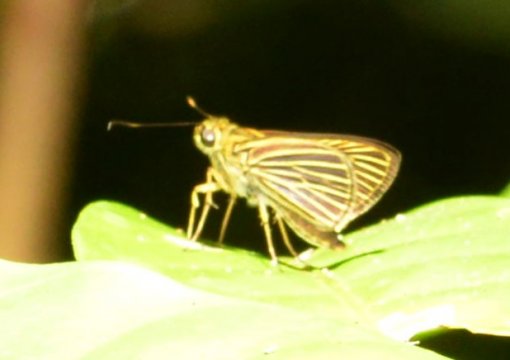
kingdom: Animalia
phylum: Arthropoda
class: Insecta
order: Lepidoptera
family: Hesperiidae
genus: Vehilius
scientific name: Vehilius
